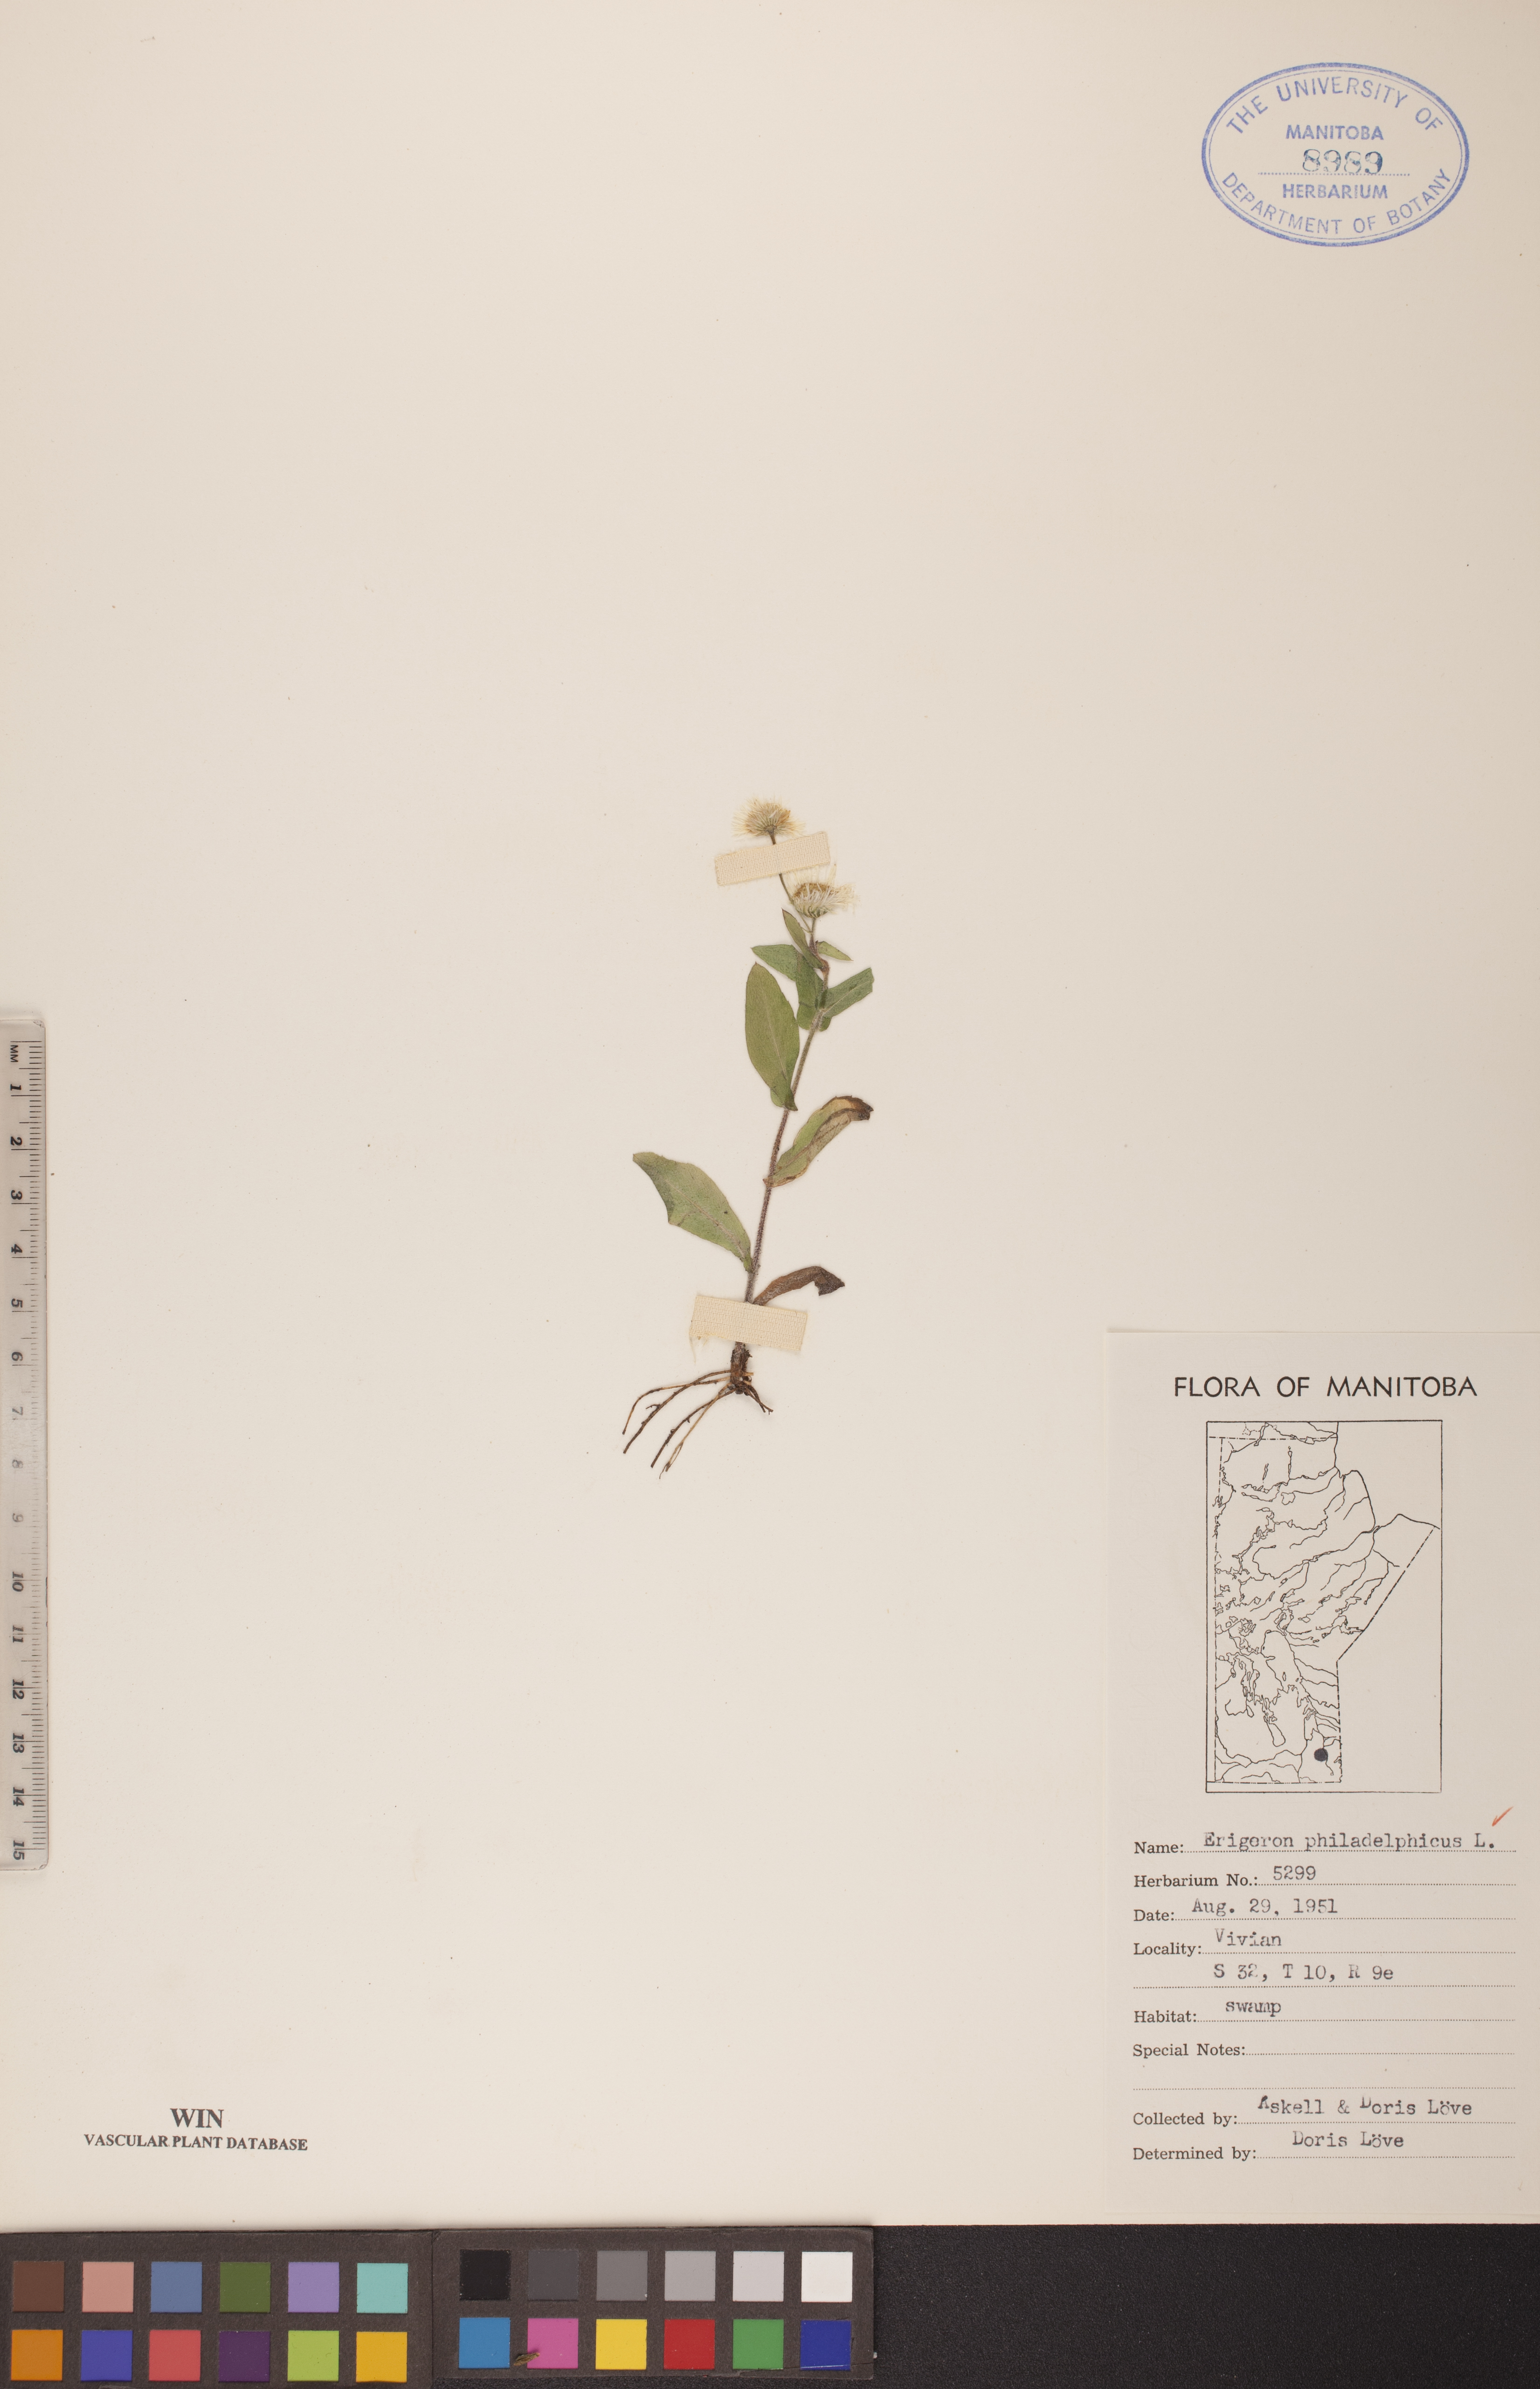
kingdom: Plantae
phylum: Tracheophyta
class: Magnoliopsida
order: Asterales
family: Asteraceae
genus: Erigeron
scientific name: Erigeron philadelphicus
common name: Robin's-plantain
